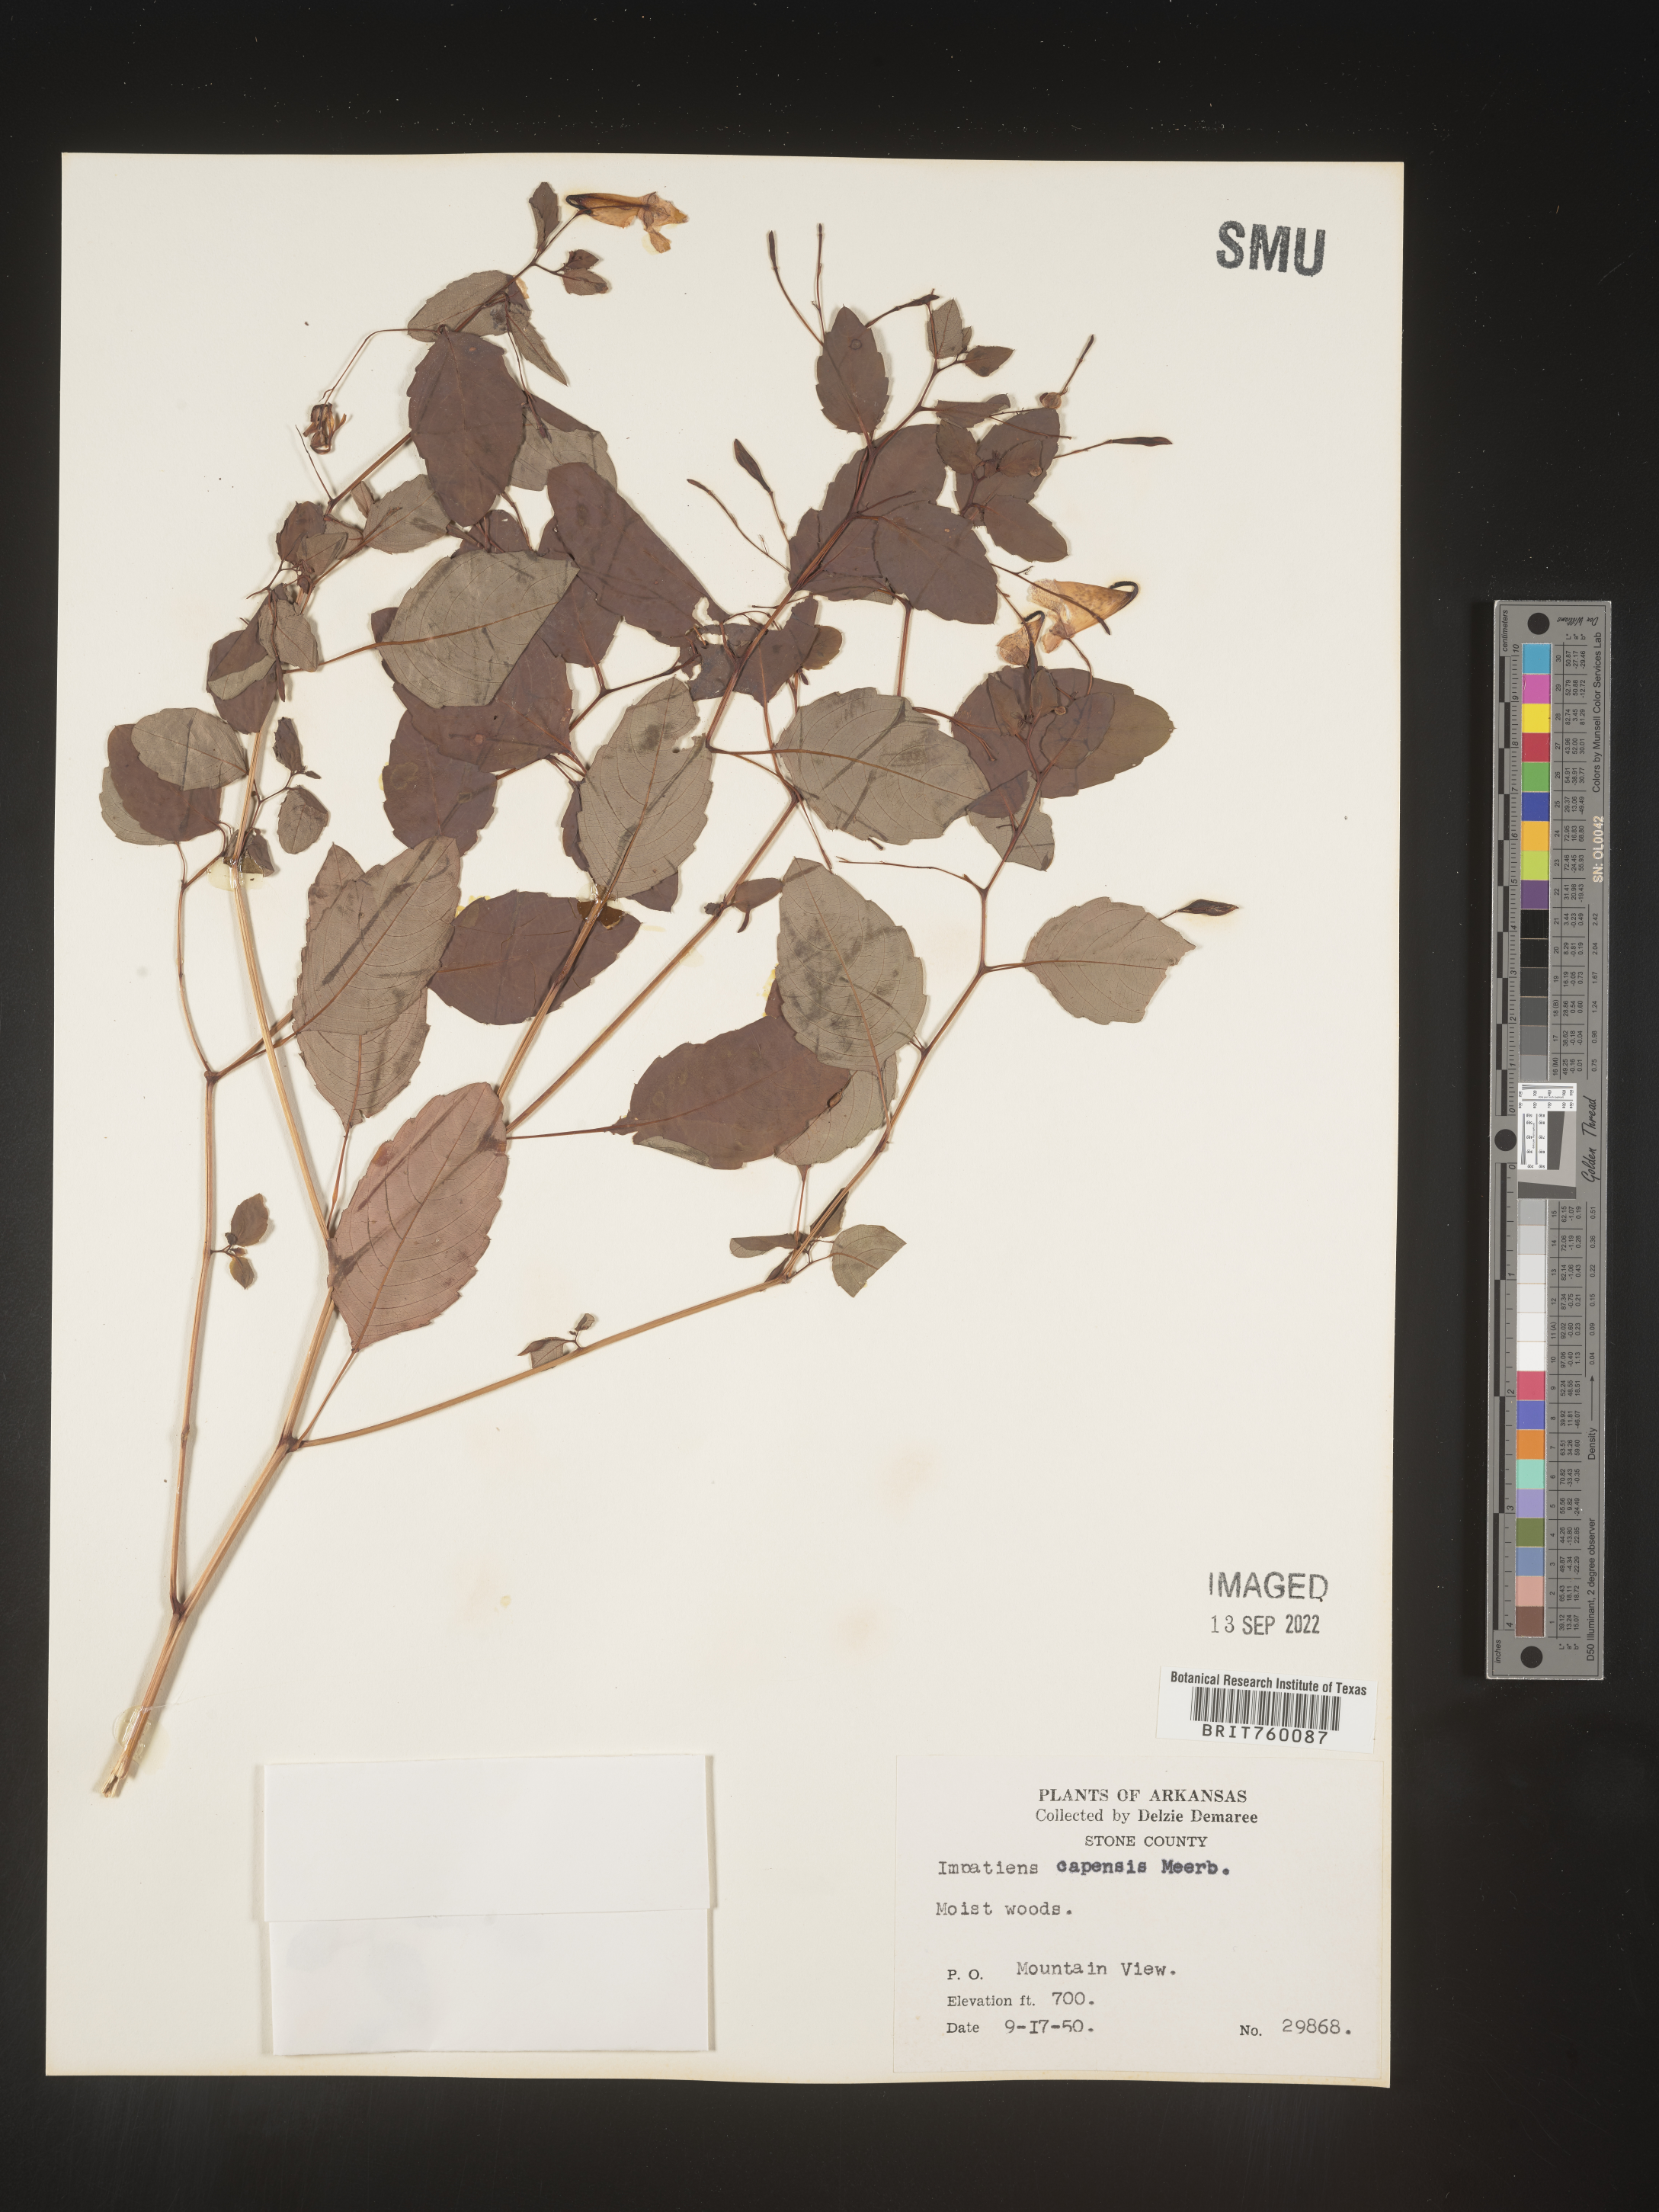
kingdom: Plantae
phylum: Tracheophyta
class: Magnoliopsida
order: Ericales
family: Balsaminaceae
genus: Impatiens
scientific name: Impatiens capensis
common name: Orange balsam
